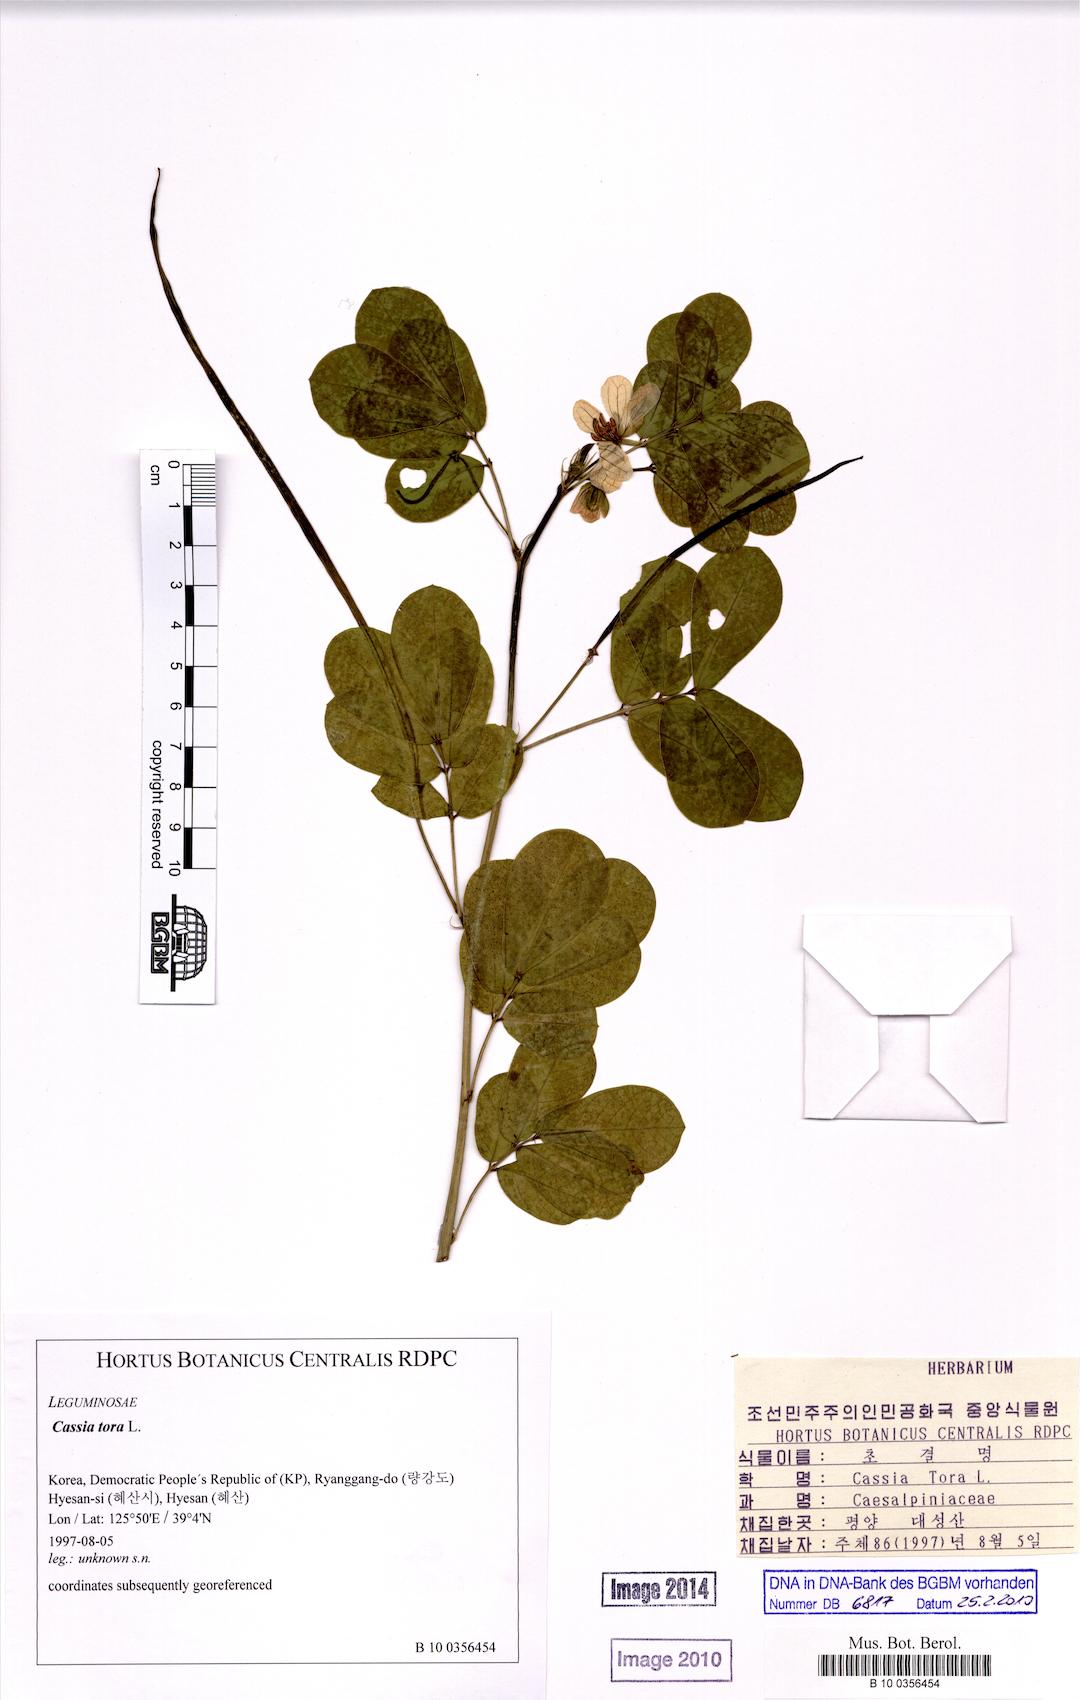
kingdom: Plantae
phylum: Tracheophyta
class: Magnoliopsida
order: Fabales
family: Fabaceae
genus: Senna
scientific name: Senna tora
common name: Sickle senna
